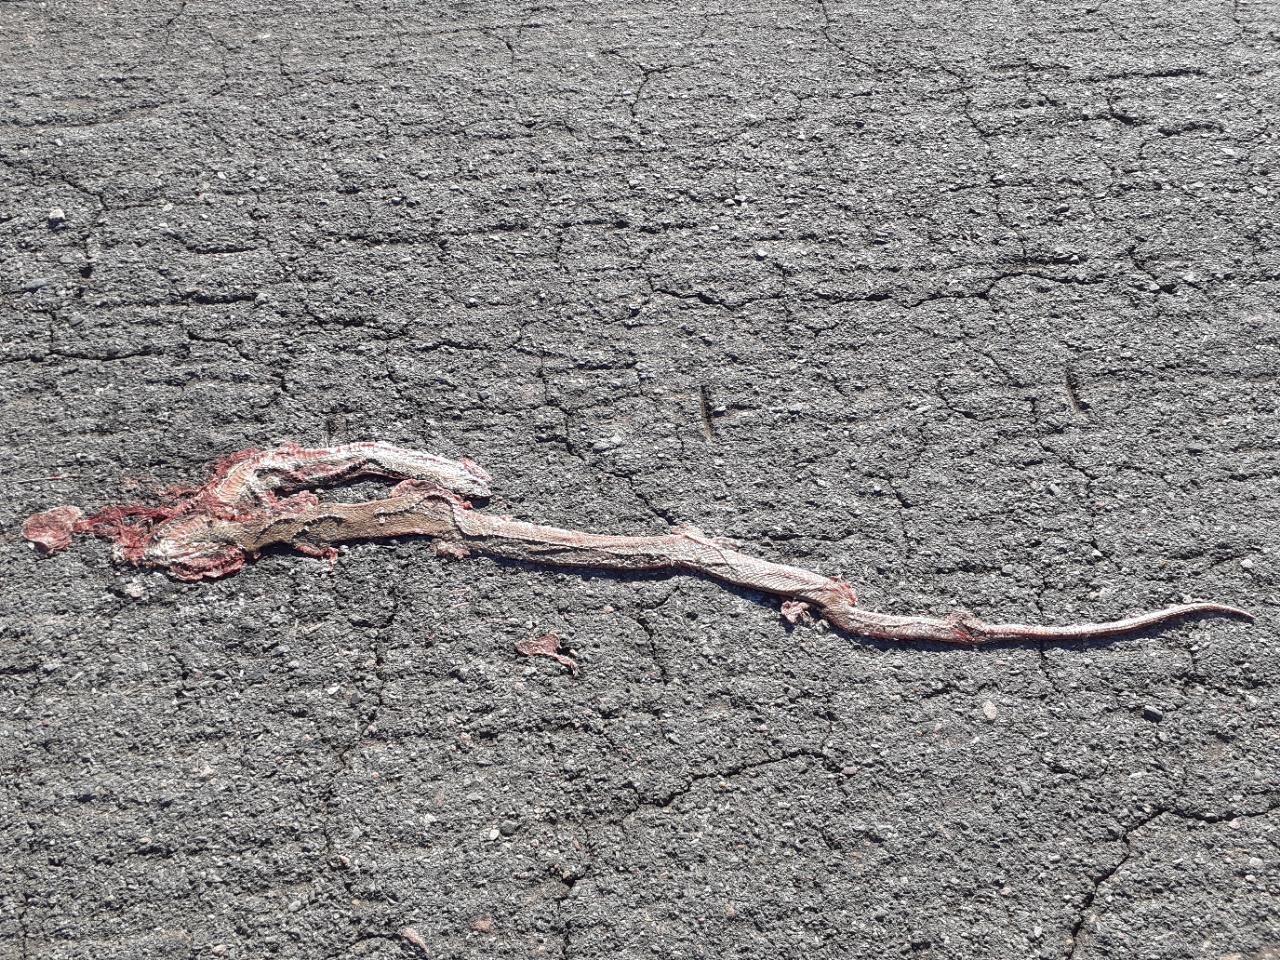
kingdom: Animalia
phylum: Chordata
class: Squamata
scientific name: Squamata
